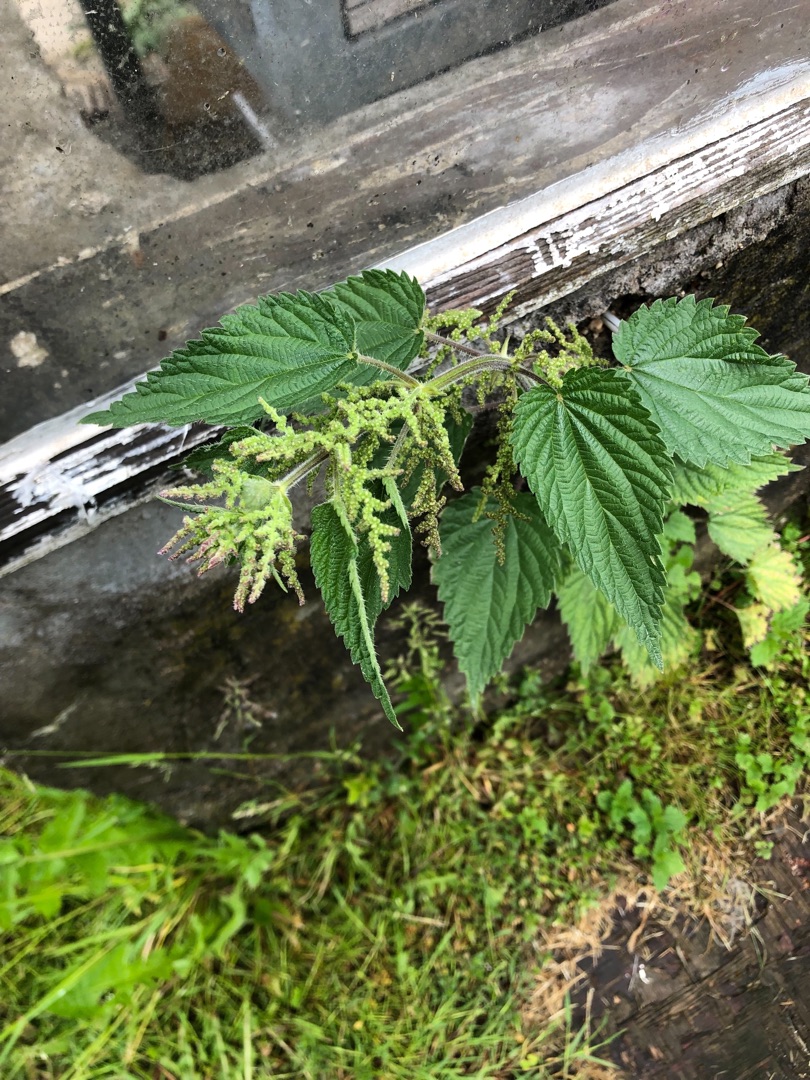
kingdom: Plantae
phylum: Tracheophyta
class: Magnoliopsida
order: Rosales
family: Urticaceae
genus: Urtica
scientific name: Urtica dioica
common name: Stor nælde
